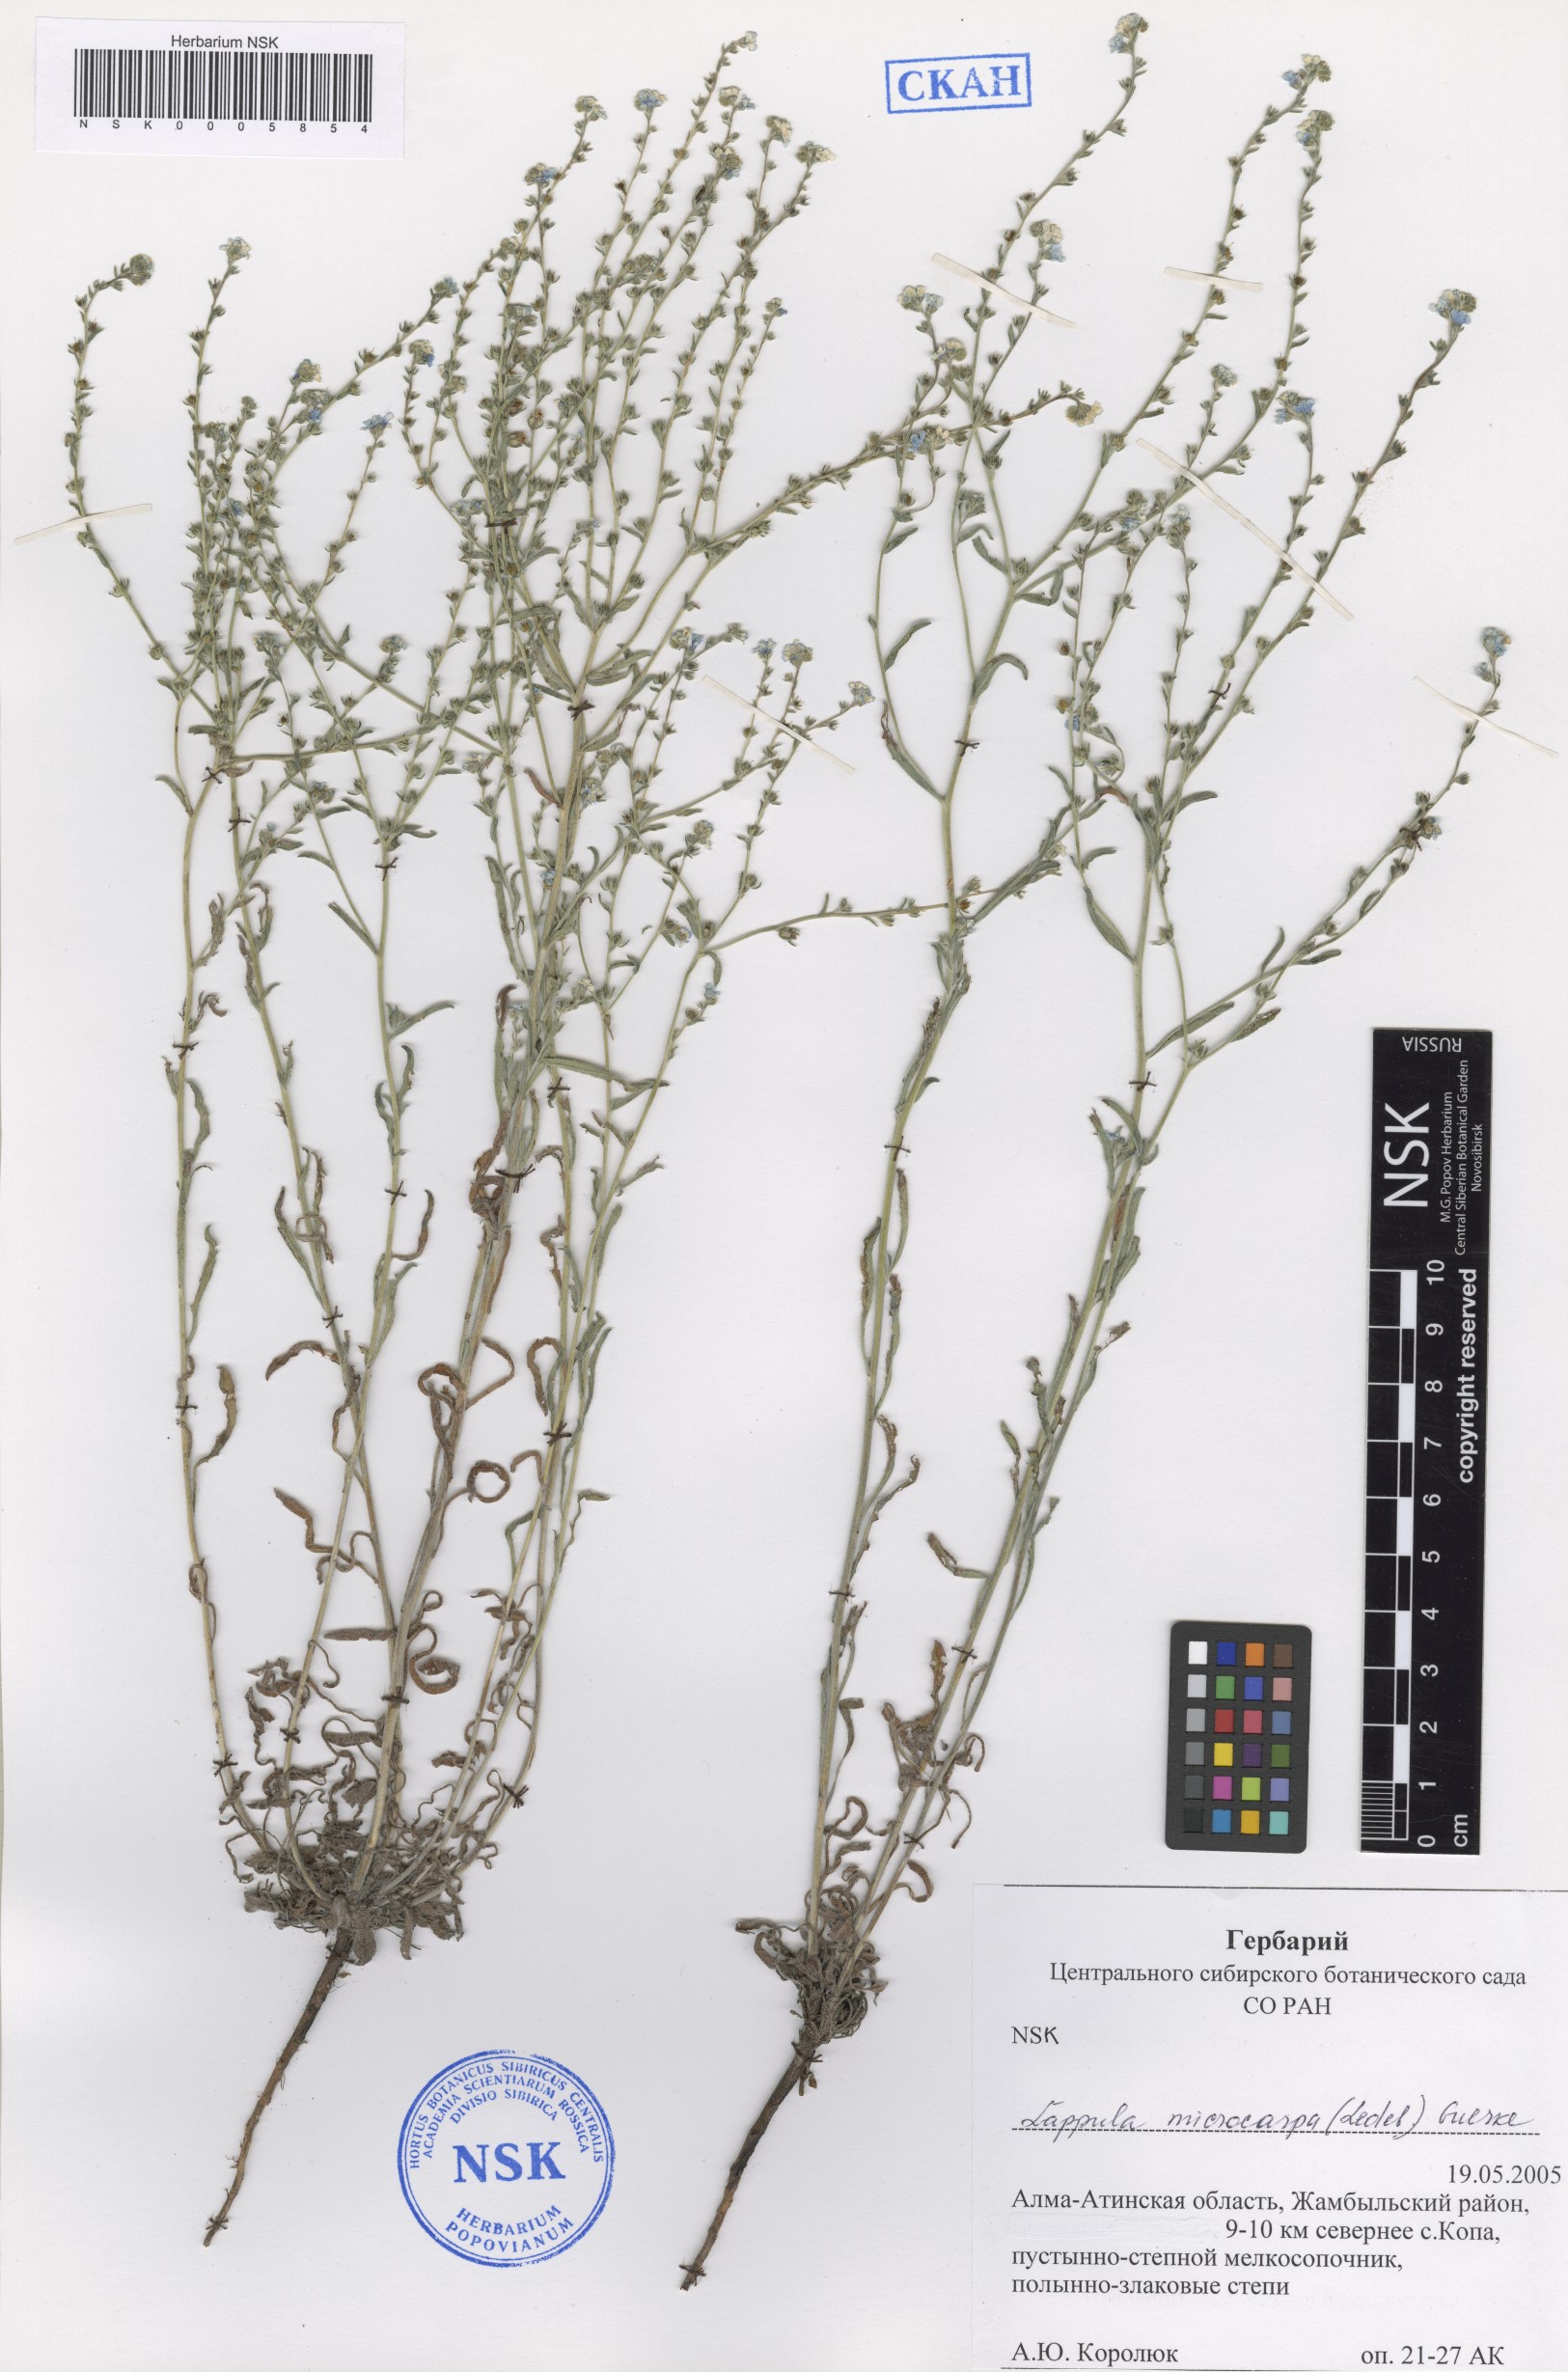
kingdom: Plantae
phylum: Tracheophyta
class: Magnoliopsida
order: Boraginales
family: Boraginaceae
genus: Lappula
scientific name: Lappula microcarpa
